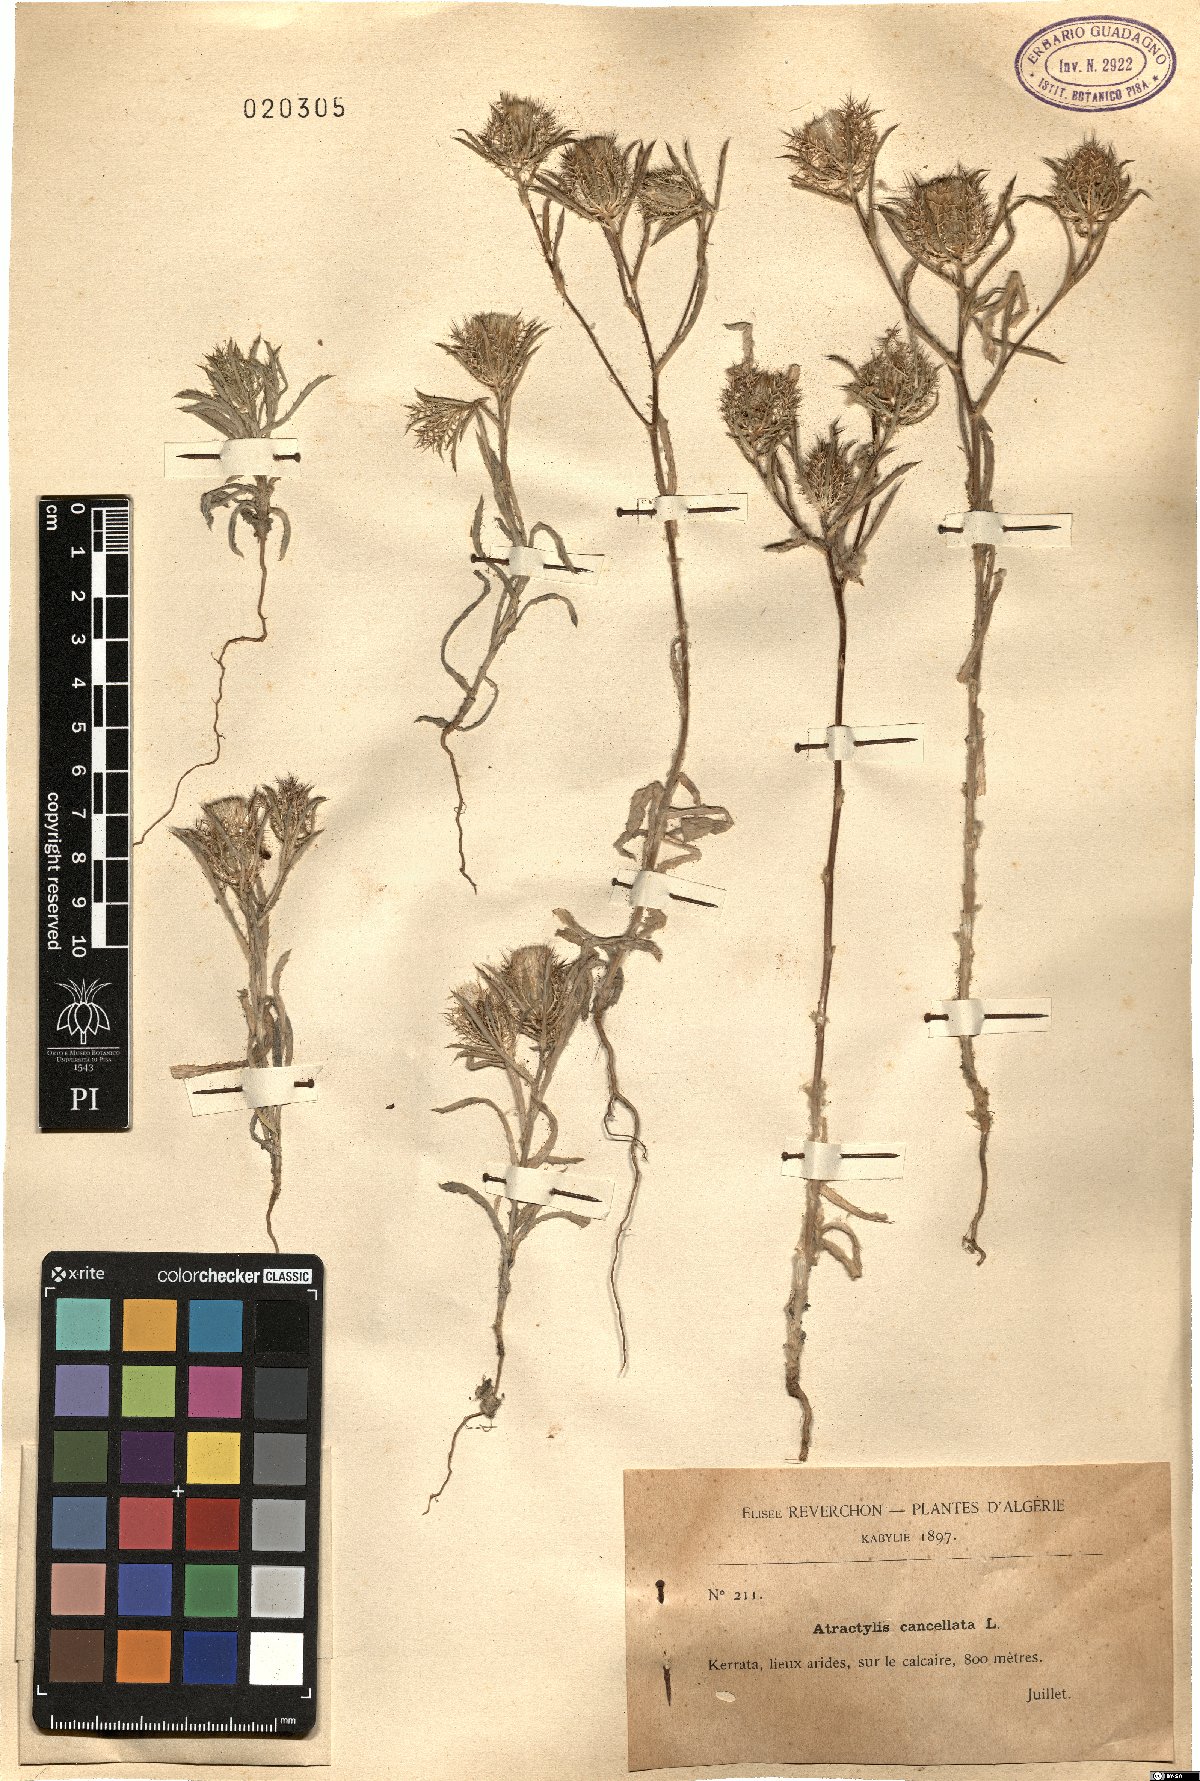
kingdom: Plantae
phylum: Tracheophyta
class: Magnoliopsida
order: Asterales
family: Asteraceae
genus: Atractylis
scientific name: Atractylis cancellata
